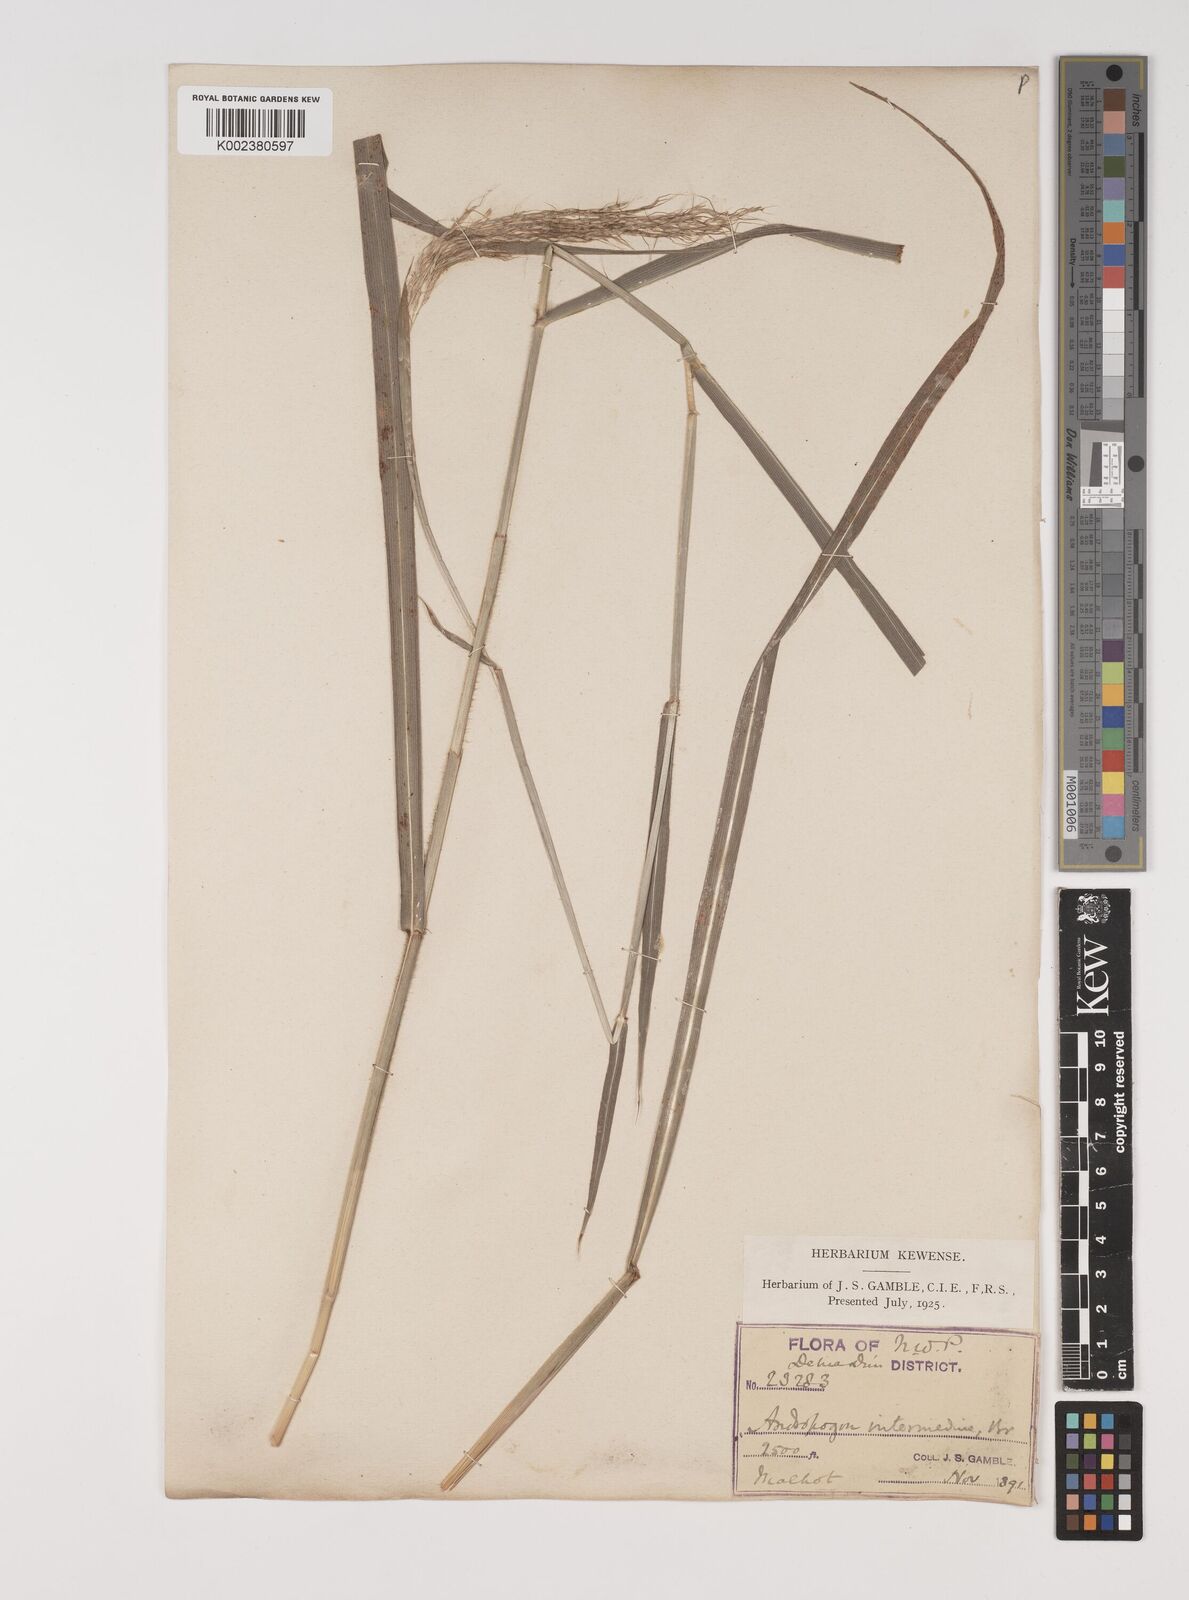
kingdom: Plantae
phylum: Tracheophyta
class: Liliopsida
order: Poales
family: Poaceae
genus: Bothriochloa
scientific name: Bothriochloa bladhii
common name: Caucasian bluestem
